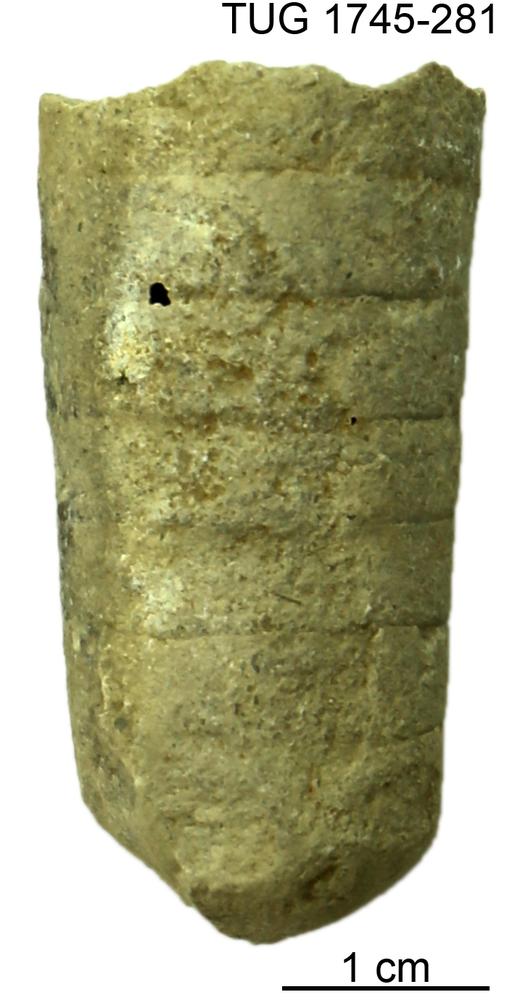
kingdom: Animalia
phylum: Mollusca
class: Cephalopoda
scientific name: Cephalopoda
